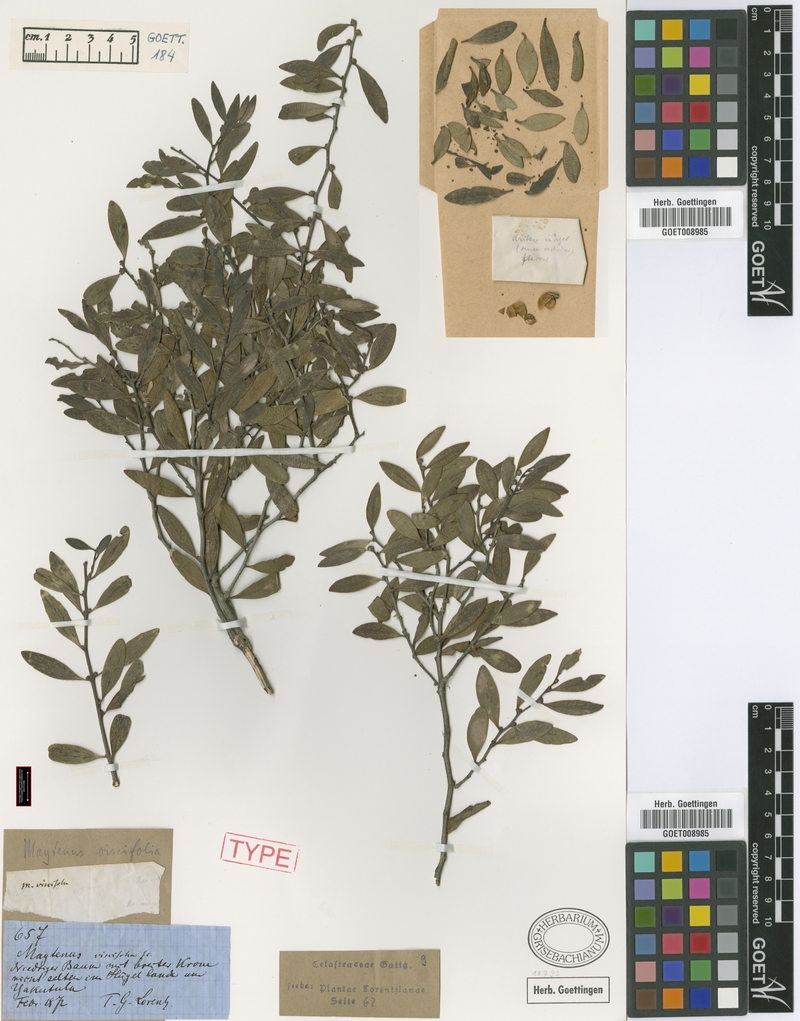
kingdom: Plantae
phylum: Tracheophyta
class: Magnoliopsida
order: Celastrales
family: Celastraceae
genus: Tricerma
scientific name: Tricerma viscifolium
